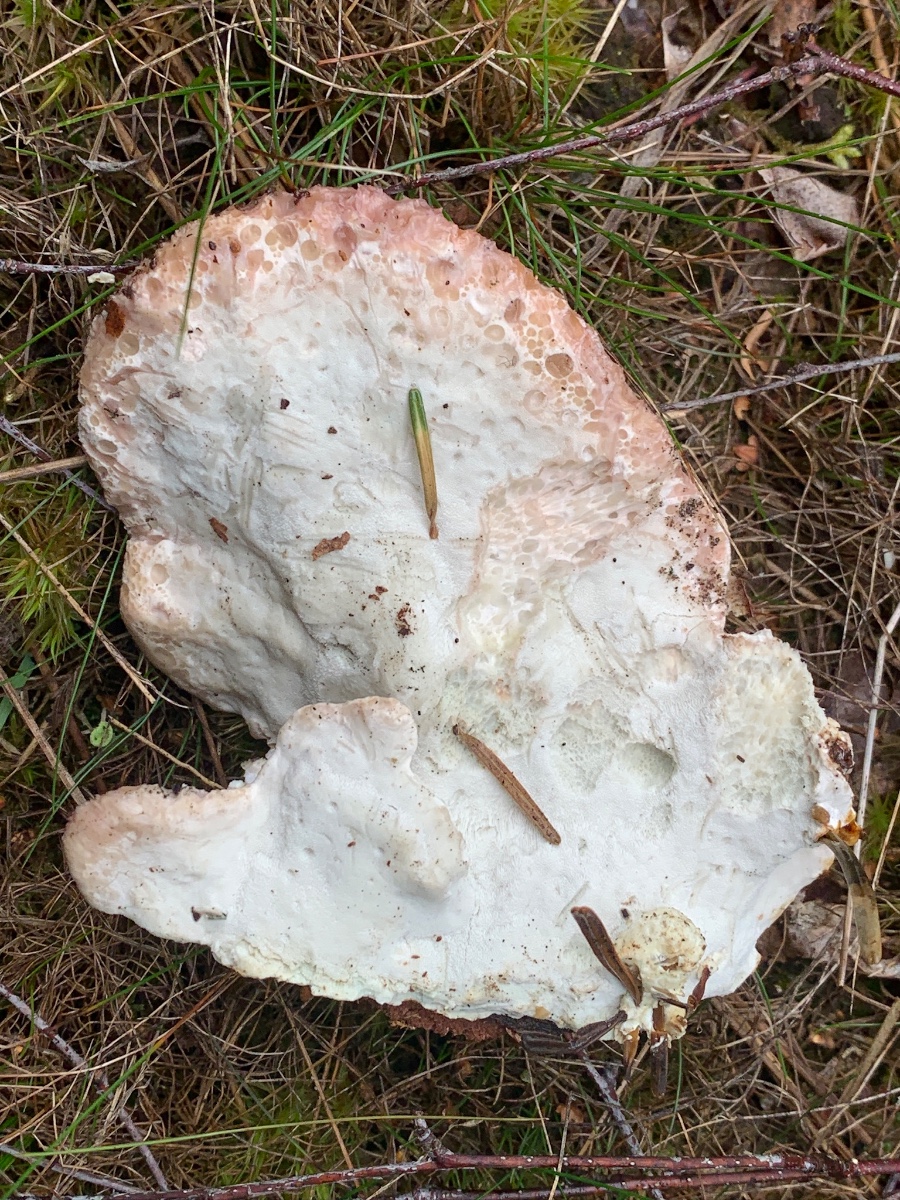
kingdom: Fungi
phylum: Basidiomycota
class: Agaricomycetes
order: Polyporales
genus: Calcipostia
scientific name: Calcipostia guttulata
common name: dråbe-kødporesvamp
